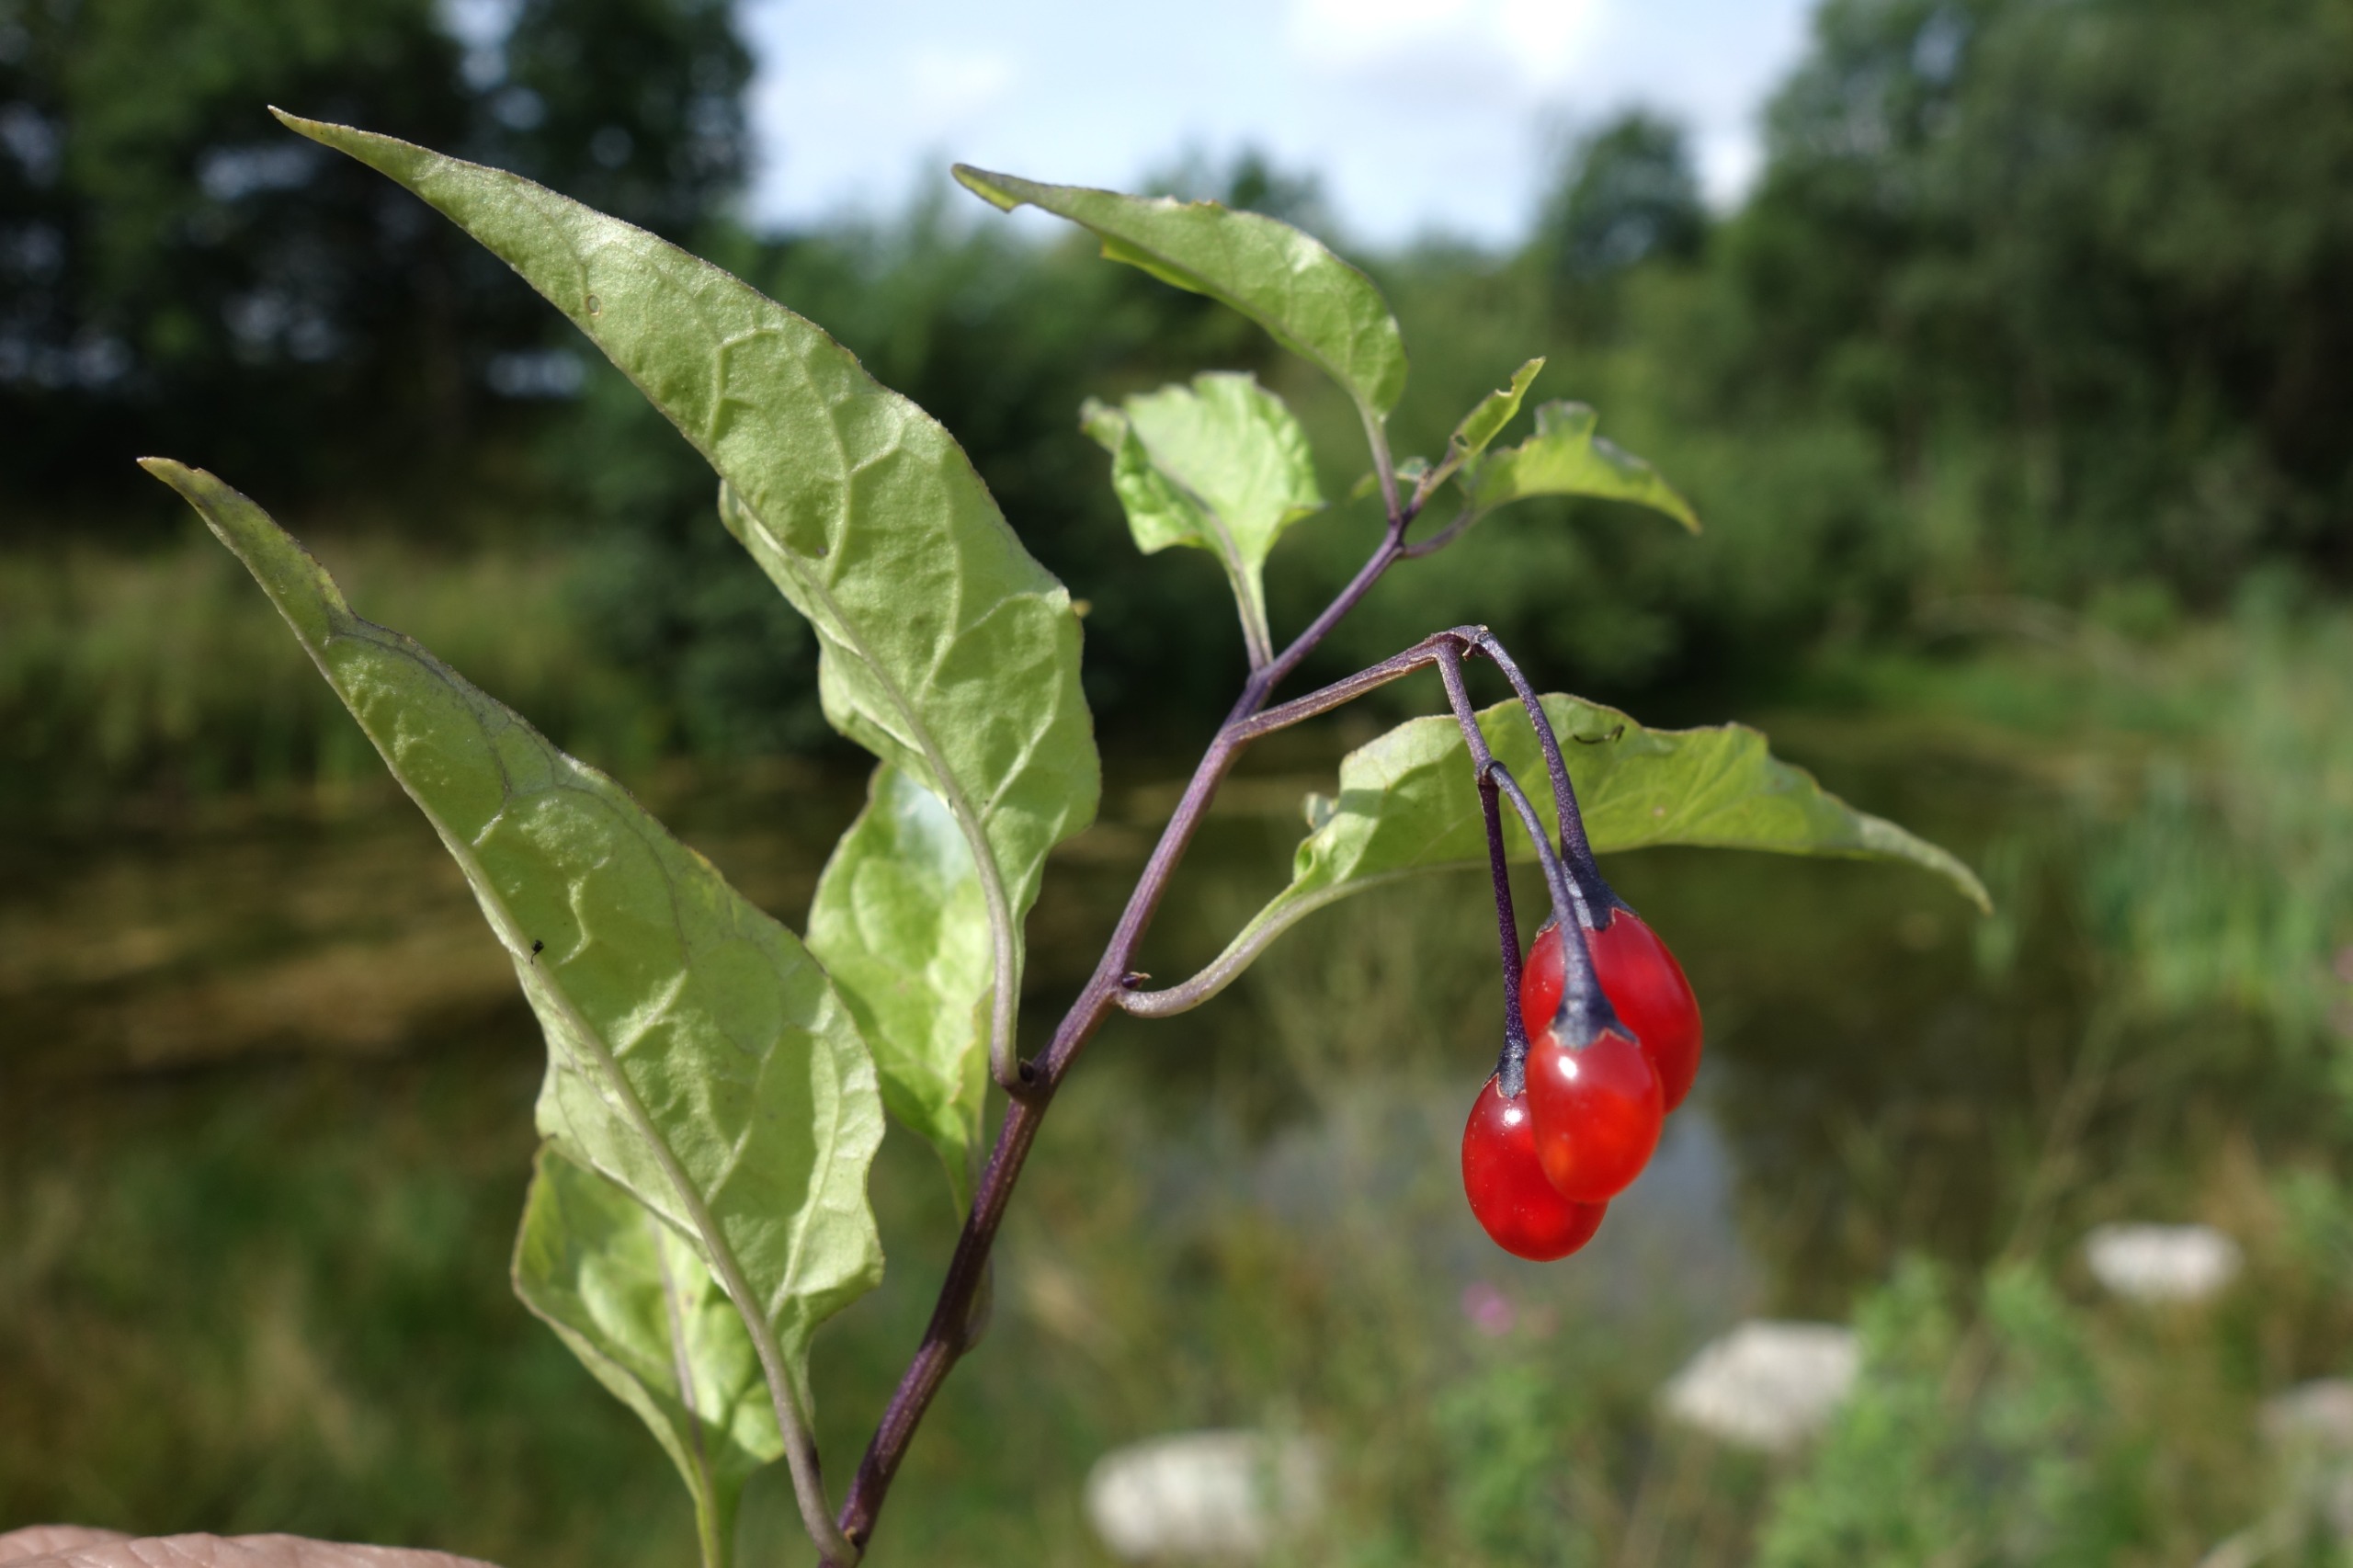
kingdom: Plantae
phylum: Tracheophyta
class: Magnoliopsida
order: Solanales
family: Solanaceae
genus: Solanum
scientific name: Solanum dulcamara
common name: Bittersød natskygge
